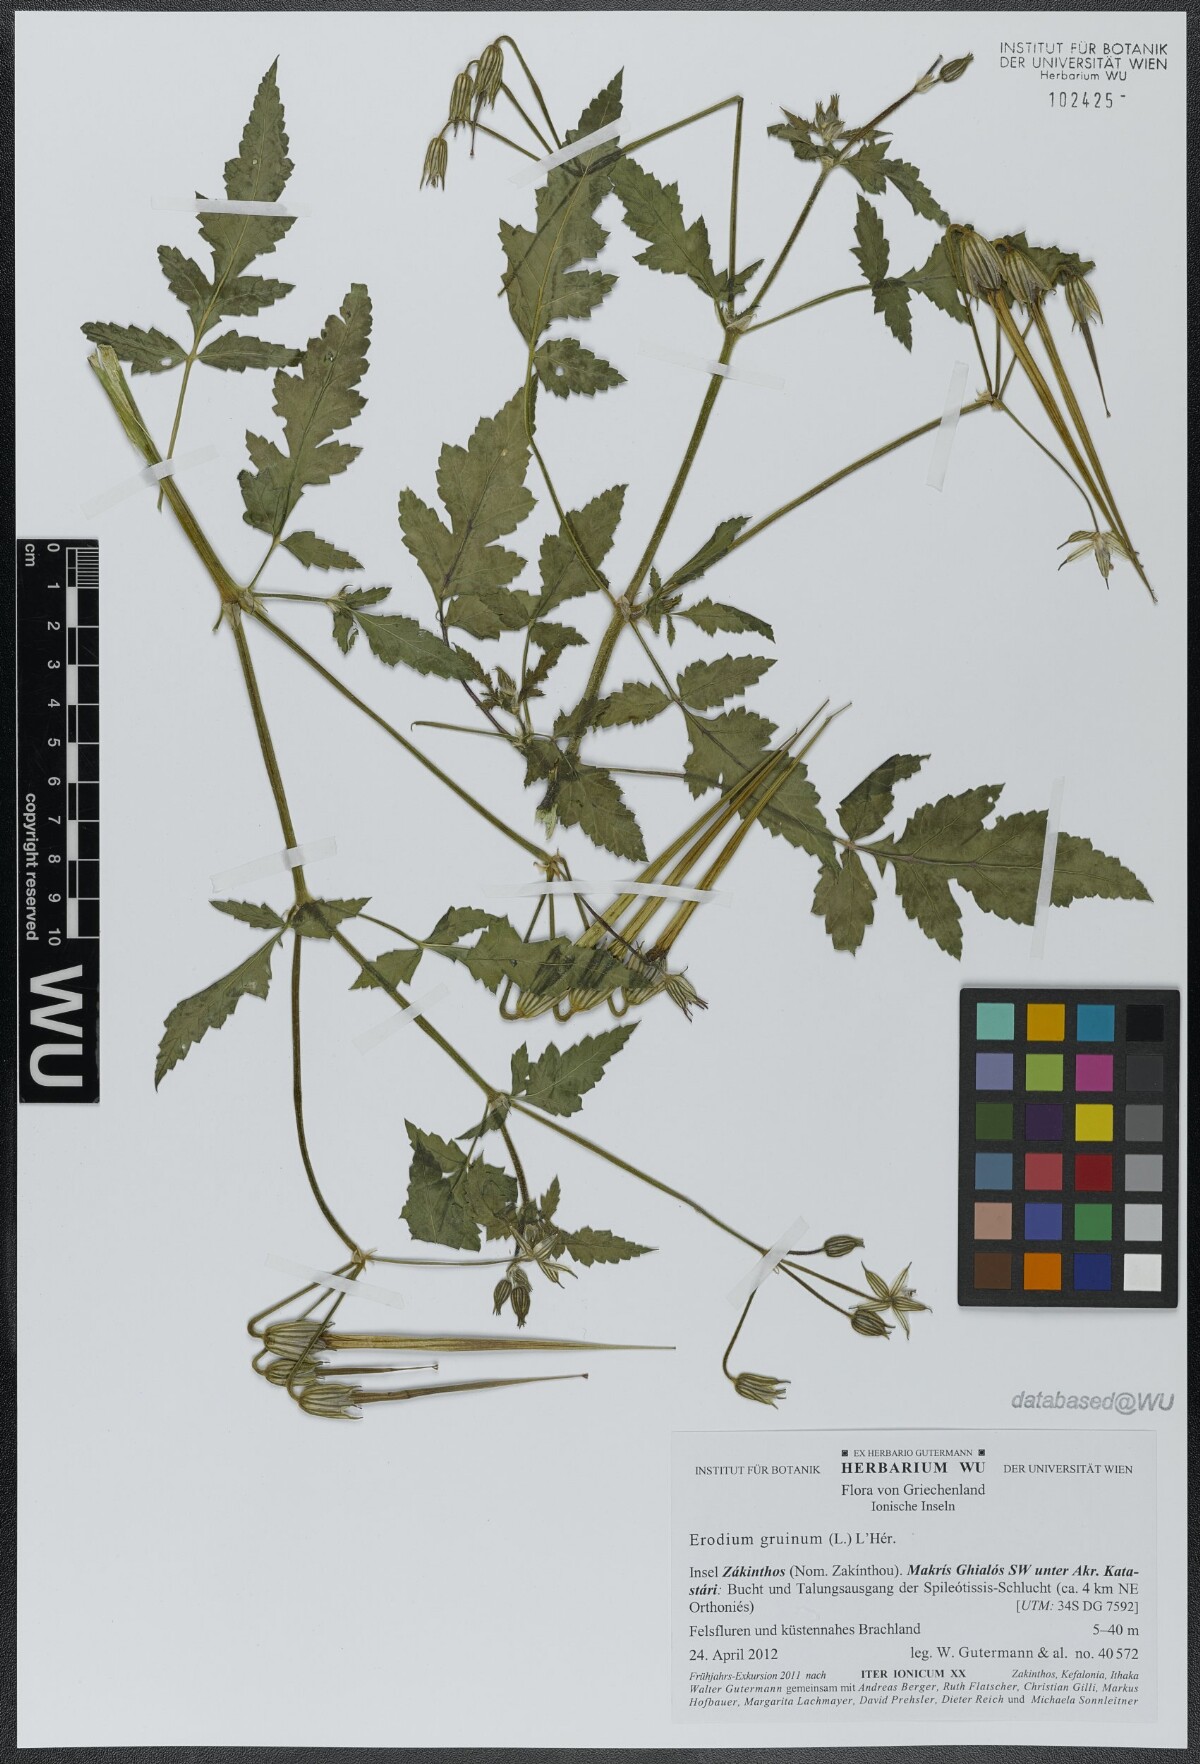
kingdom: Plantae
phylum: Tracheophyta
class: Magnoliopsida
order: Geraniales
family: Geraniaceae
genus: Erodium
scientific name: Erodium gruinum
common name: Iranian stork's bill
